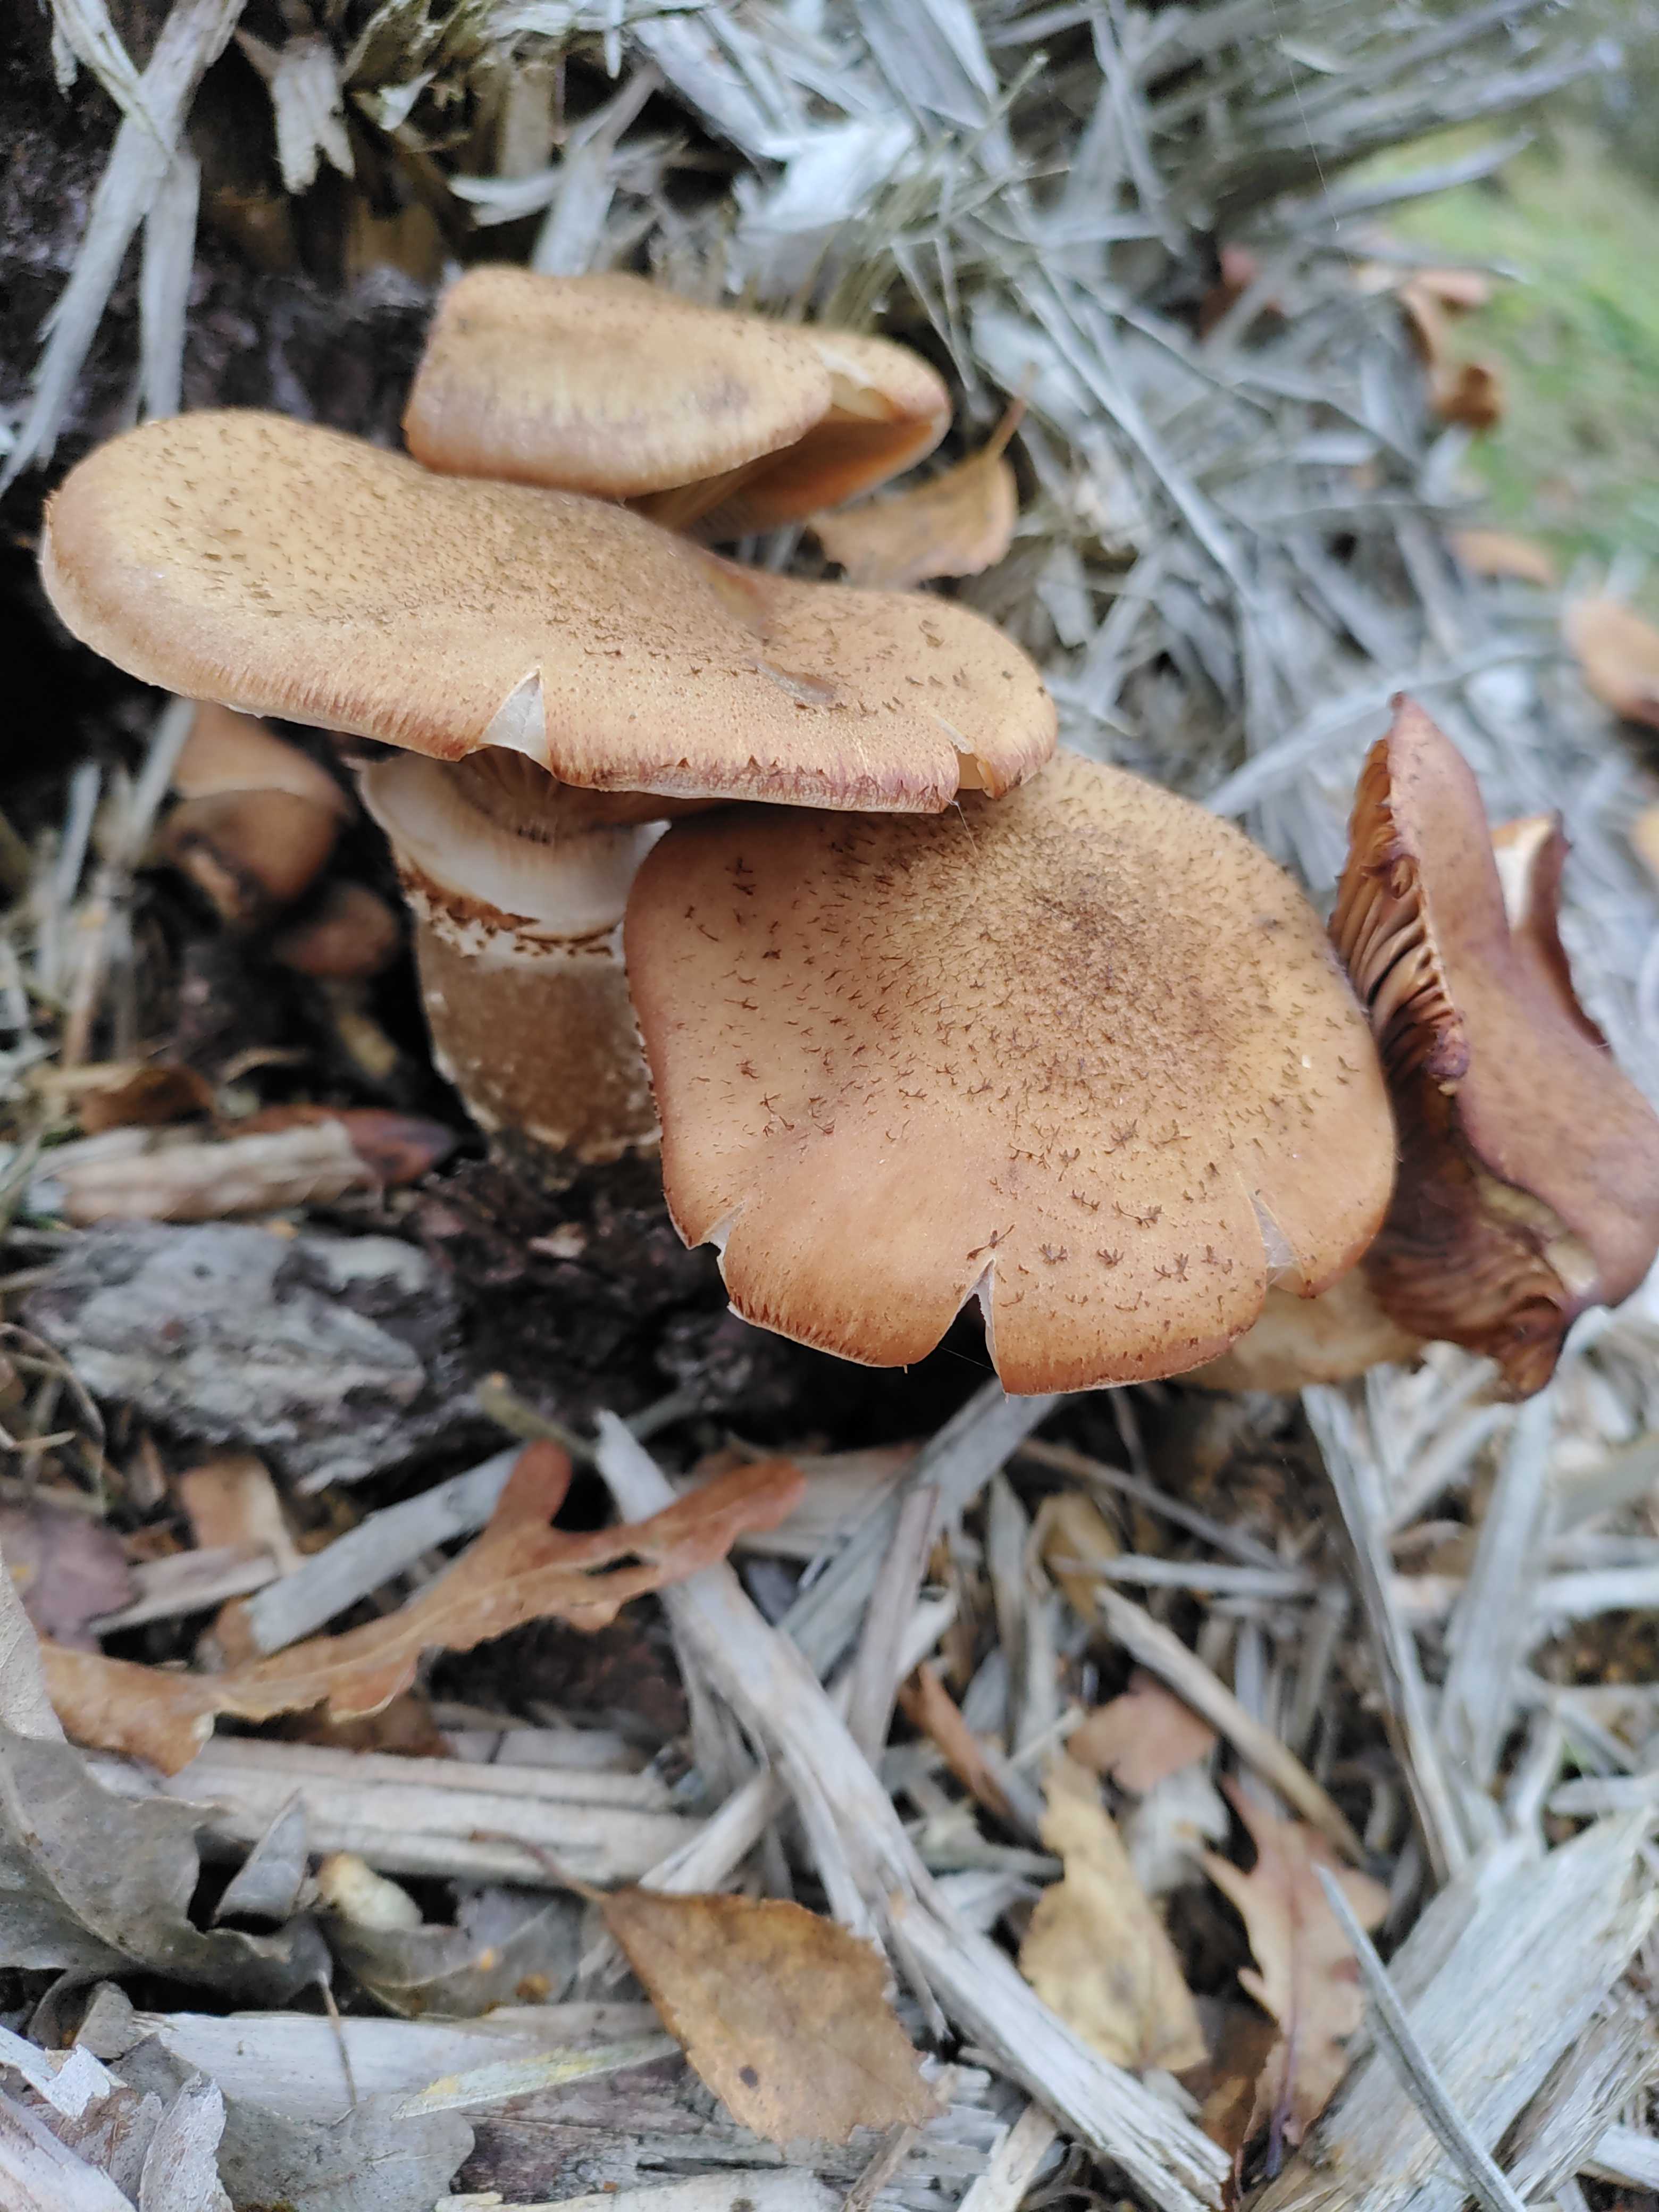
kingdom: Fungi
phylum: Basidiomycota
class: Agaricomycetes
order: Agaricales
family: Physalacriaceae
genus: Armillaria
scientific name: Armillaria ostoyae
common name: mørk honningsvamp
